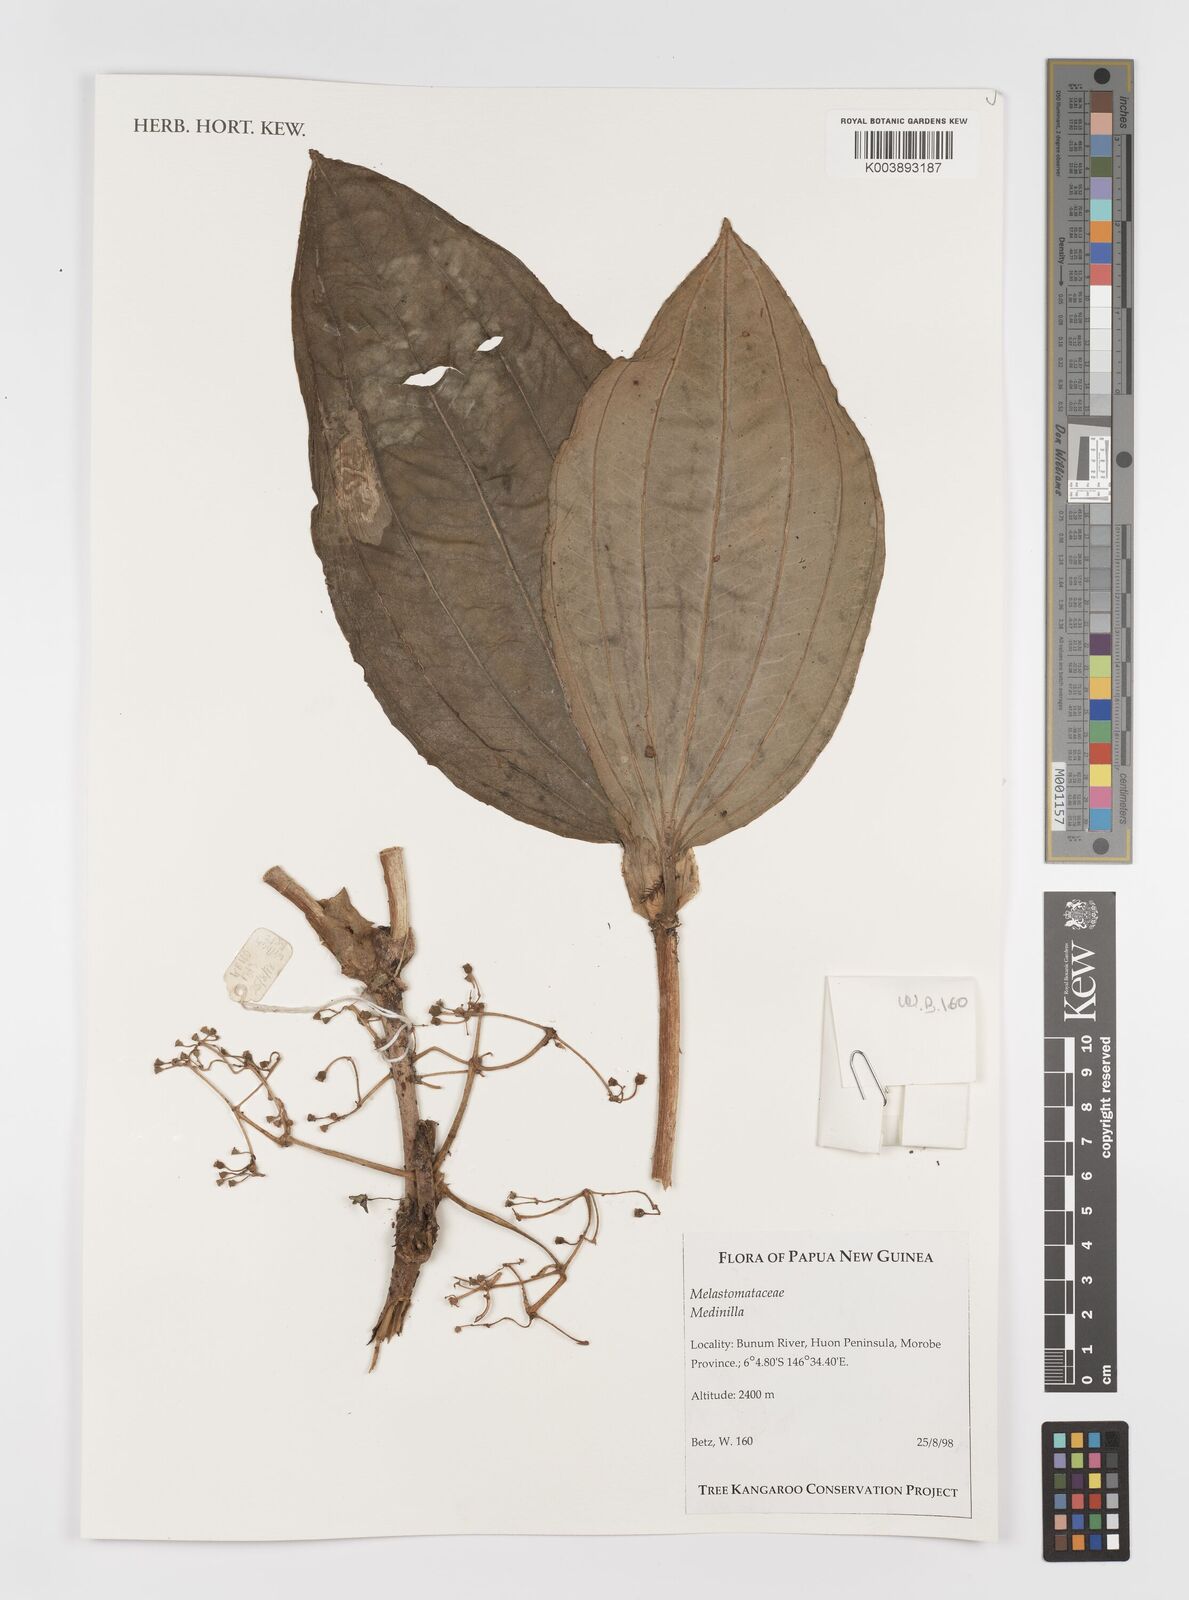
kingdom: Plantae
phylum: Tracheophyta
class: Magnoliopsida
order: Myrtales
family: Melastomataceae
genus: Medinilla
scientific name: Medinilla
